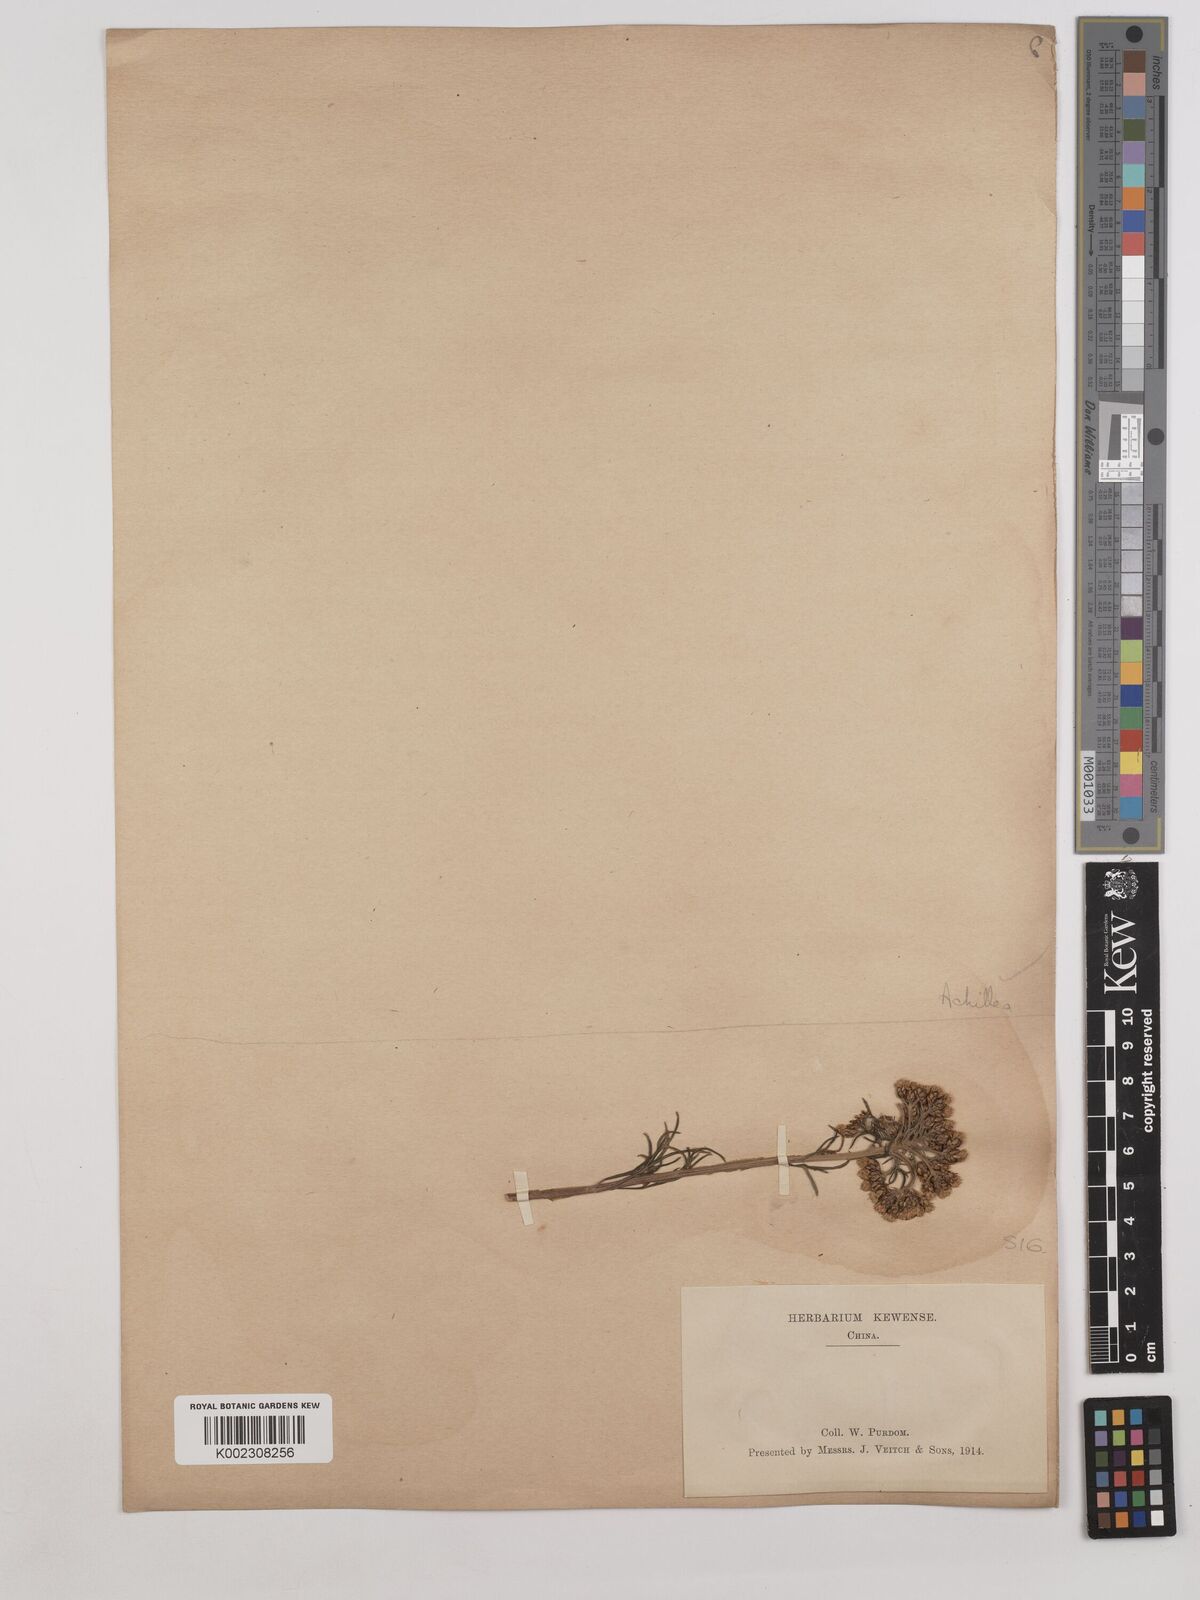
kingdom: Plantae
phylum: Tracheophyta
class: Magnoliopsida
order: Asterales
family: Asteraceae
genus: Achillea
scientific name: Achillea
